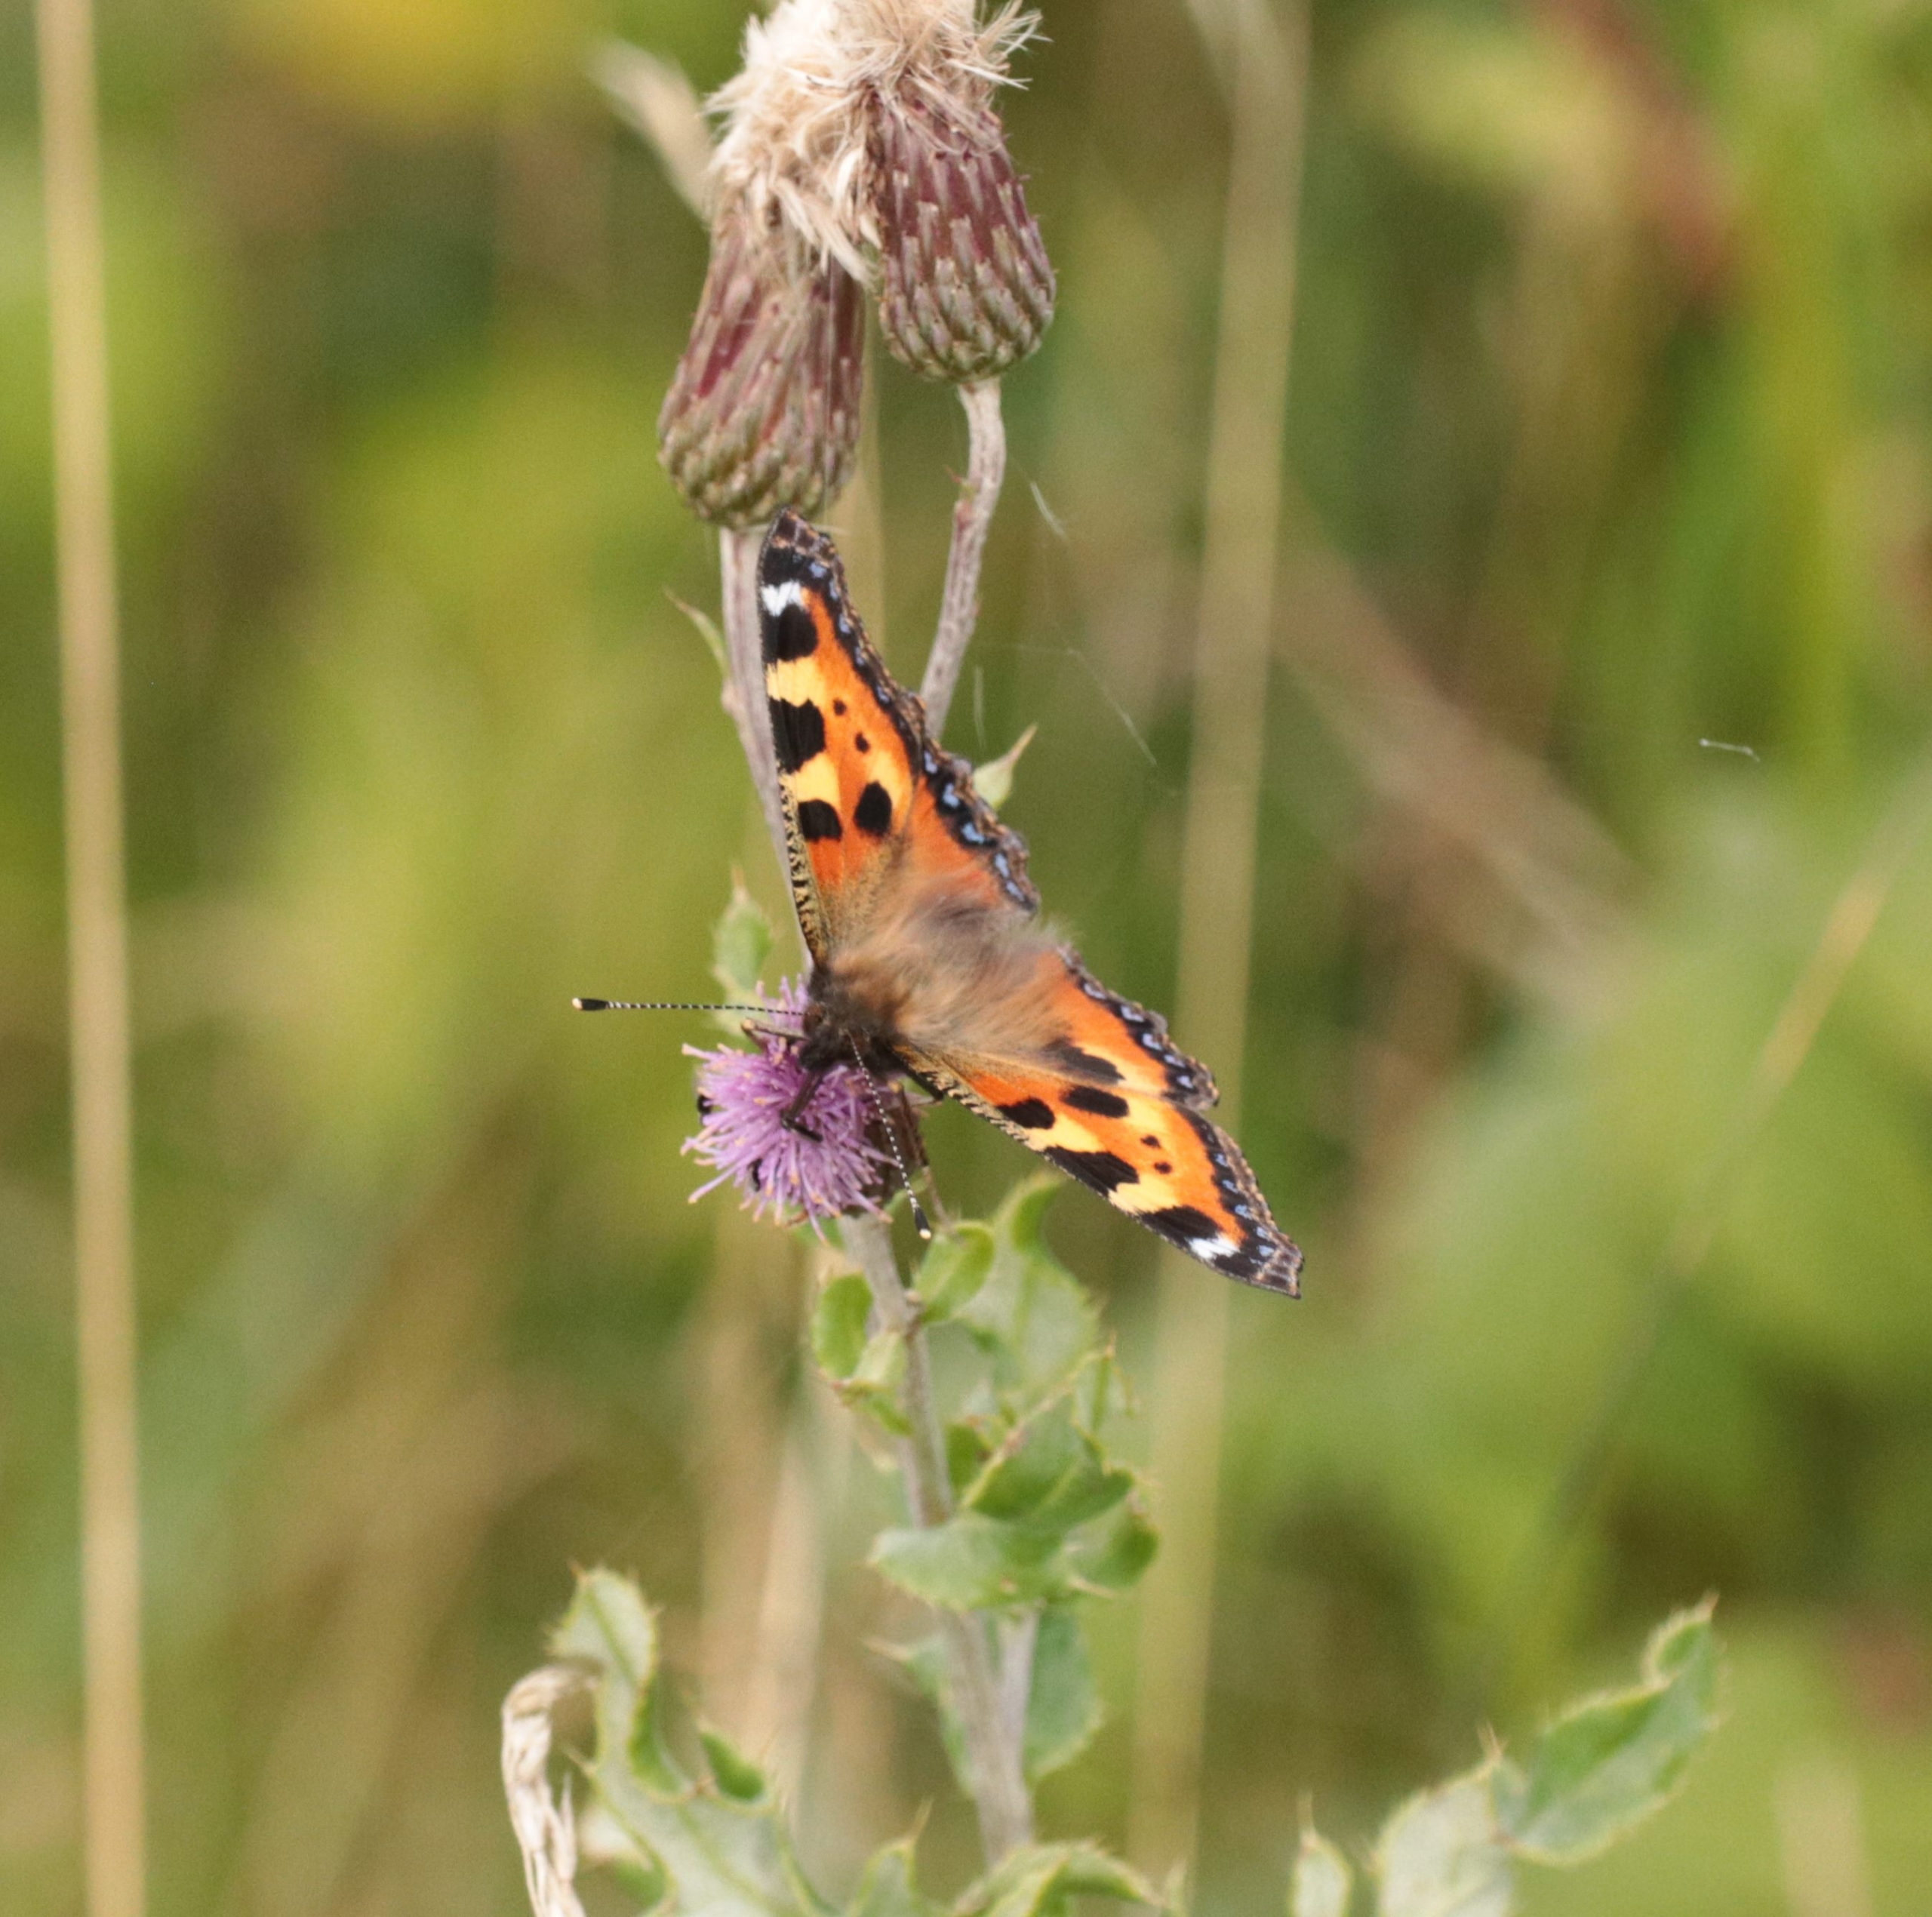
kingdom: Animalia
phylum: Arthropoda
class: Insecta
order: Lepidoptera
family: Nymphalidae
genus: Aglais
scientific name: Aglais urticae
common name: Nældens takvinge
